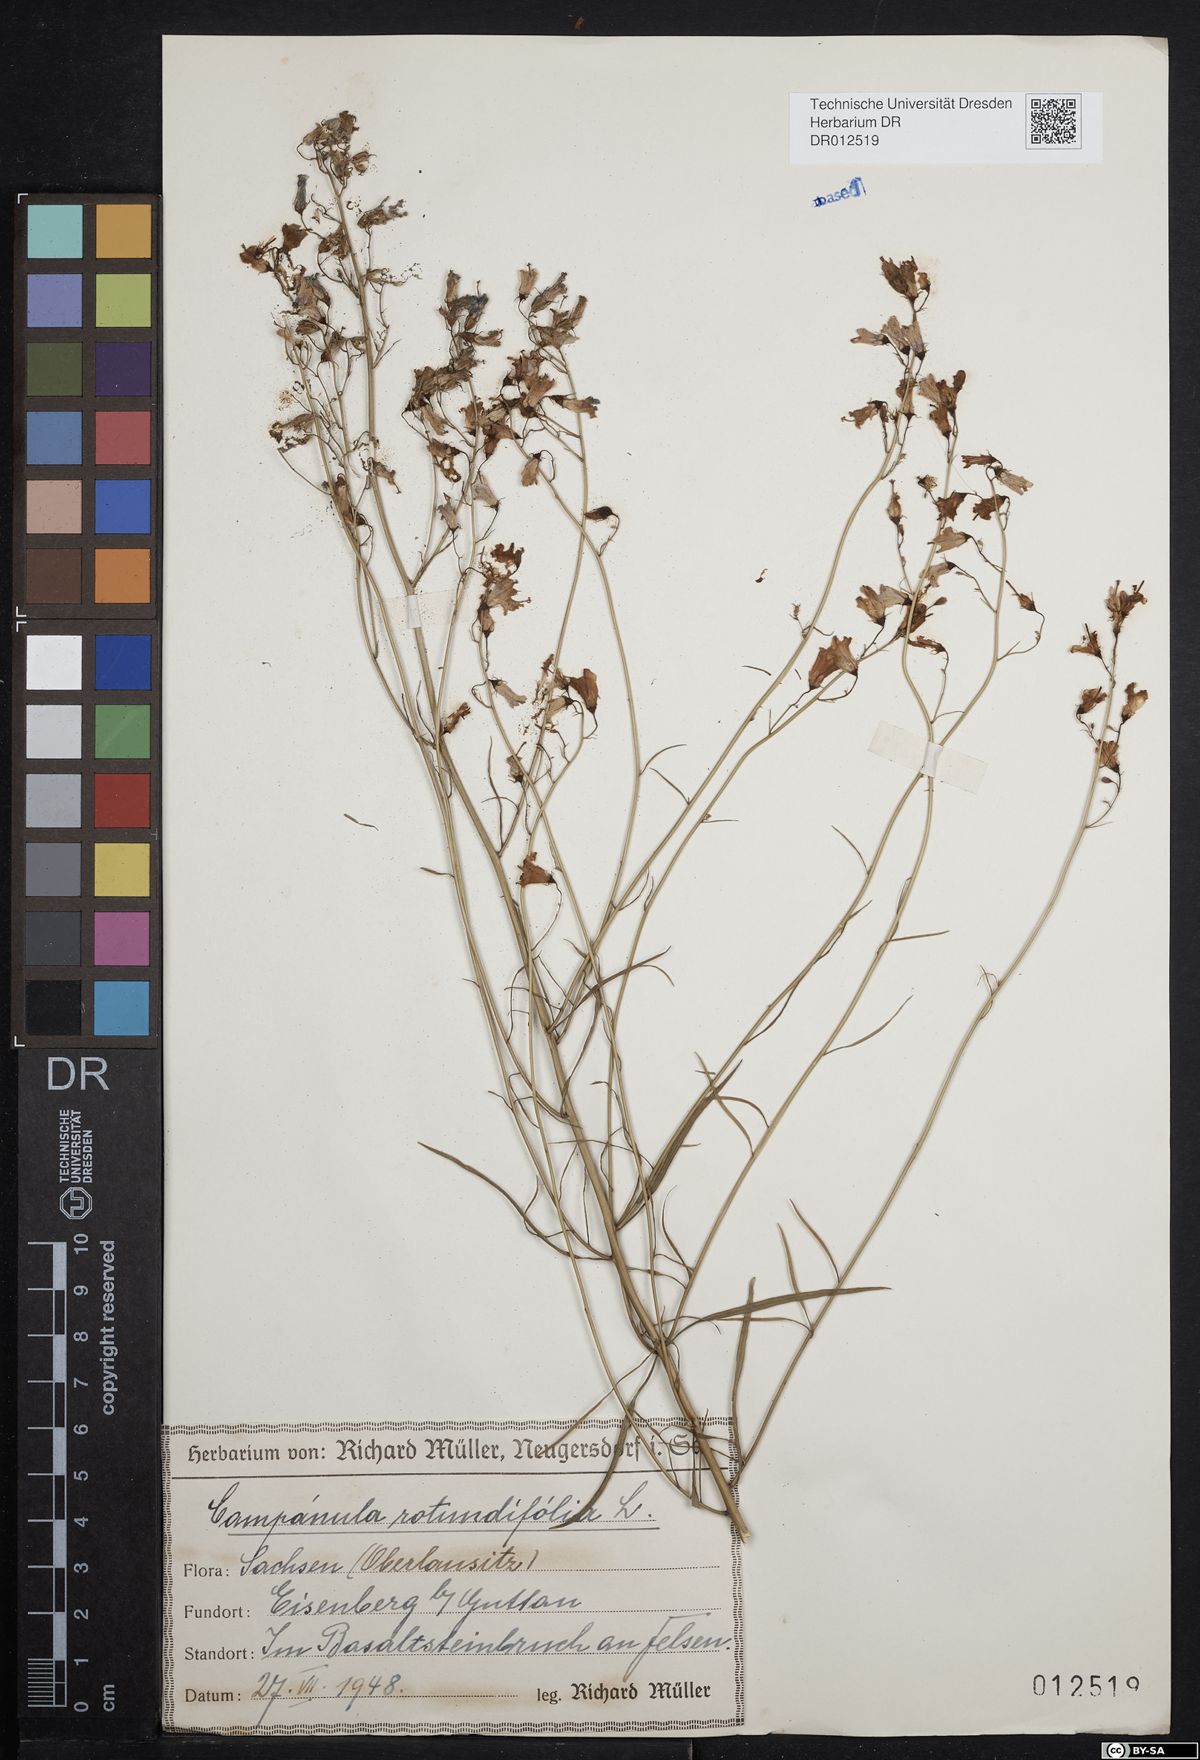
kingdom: Plantae
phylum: Tracheophyta
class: Magnoliopsida
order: Asterales
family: Campanulaceae
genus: Campanula
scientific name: Campanula rotundifolia
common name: Harebell
